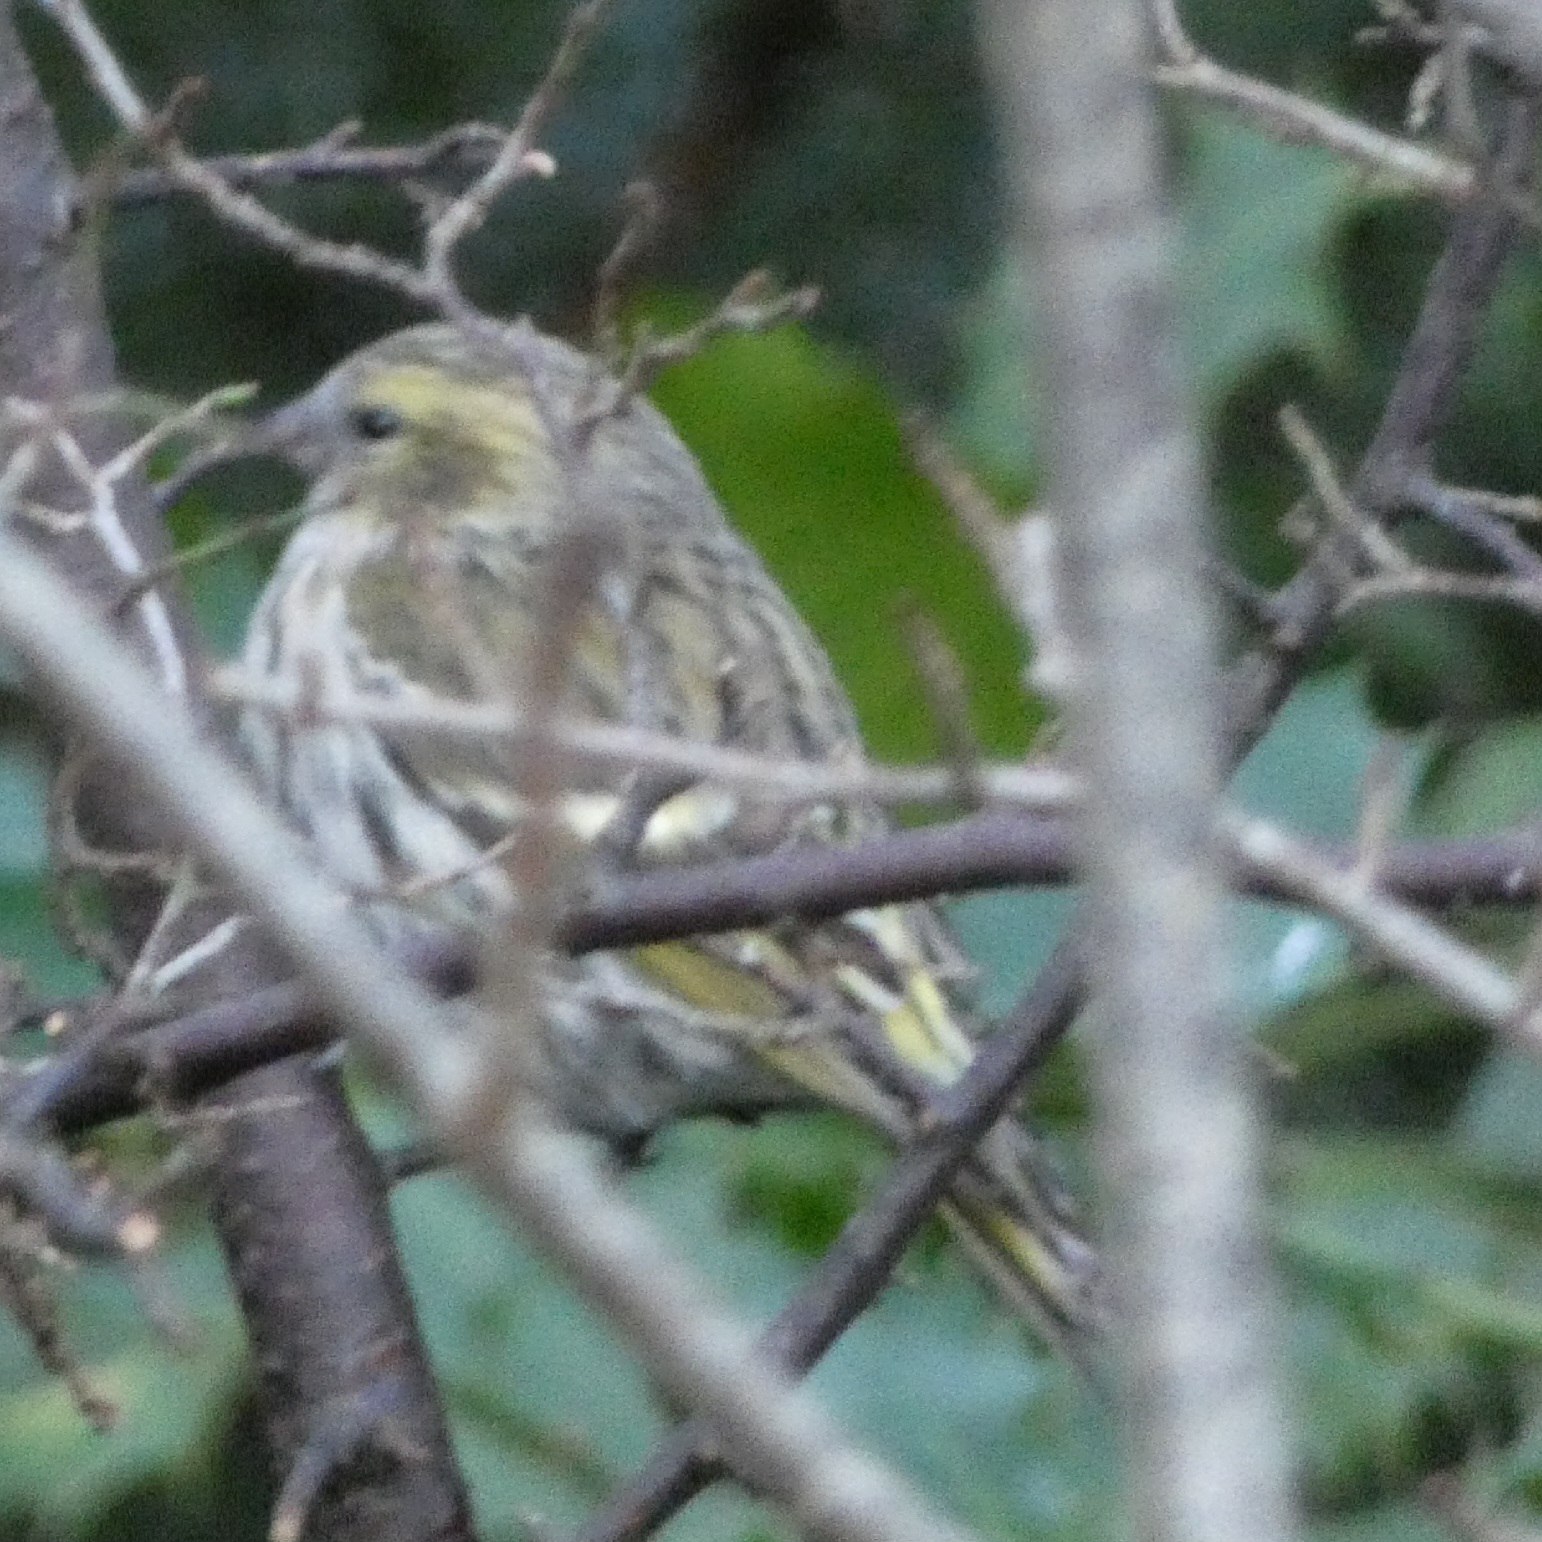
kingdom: Animalia
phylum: Chordata
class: Aves
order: Passeriformes
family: Fringillidae
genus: Spinus
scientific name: Spinus spinus
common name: Grønsisken
